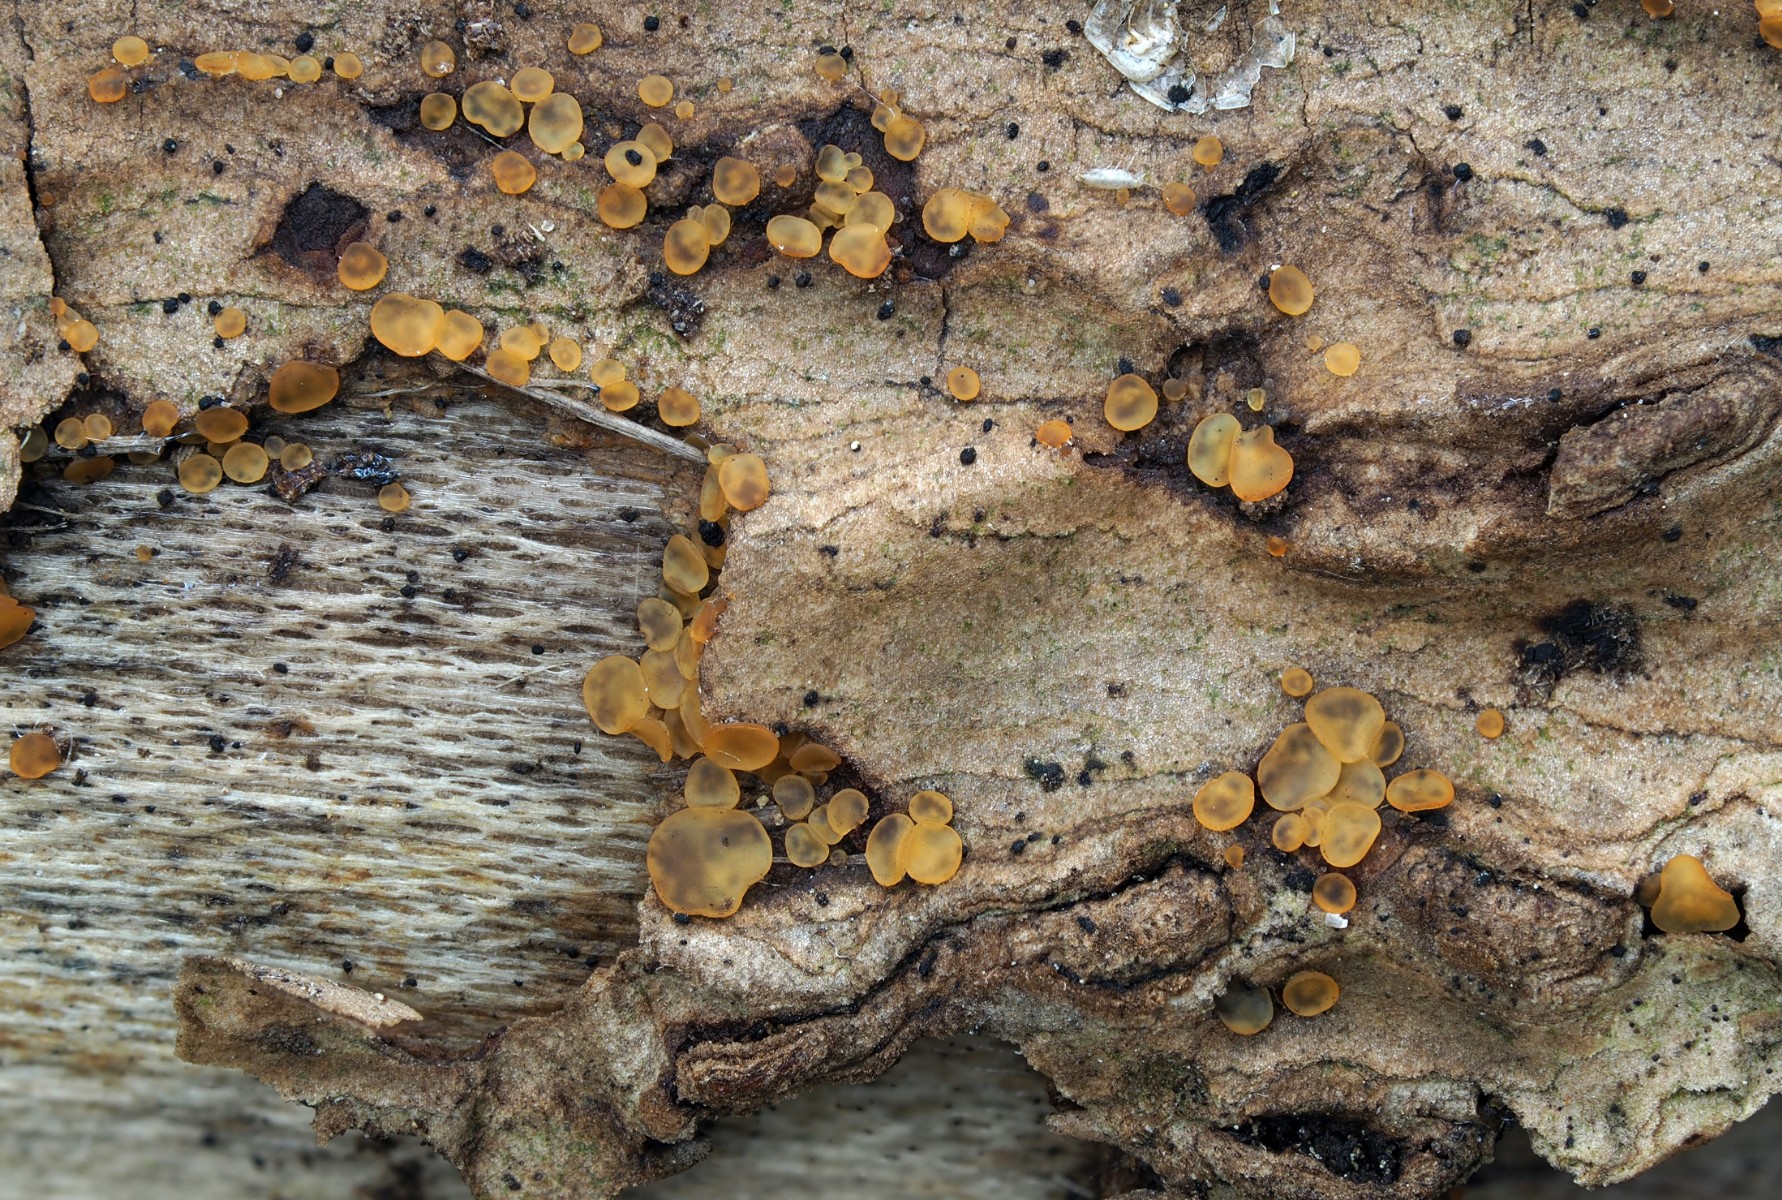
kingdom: Fungi
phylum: Ascomycota
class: Orbiliomycetes
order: Orbiliales
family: Orbiliaceae
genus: Orbilia
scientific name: Orbilia
